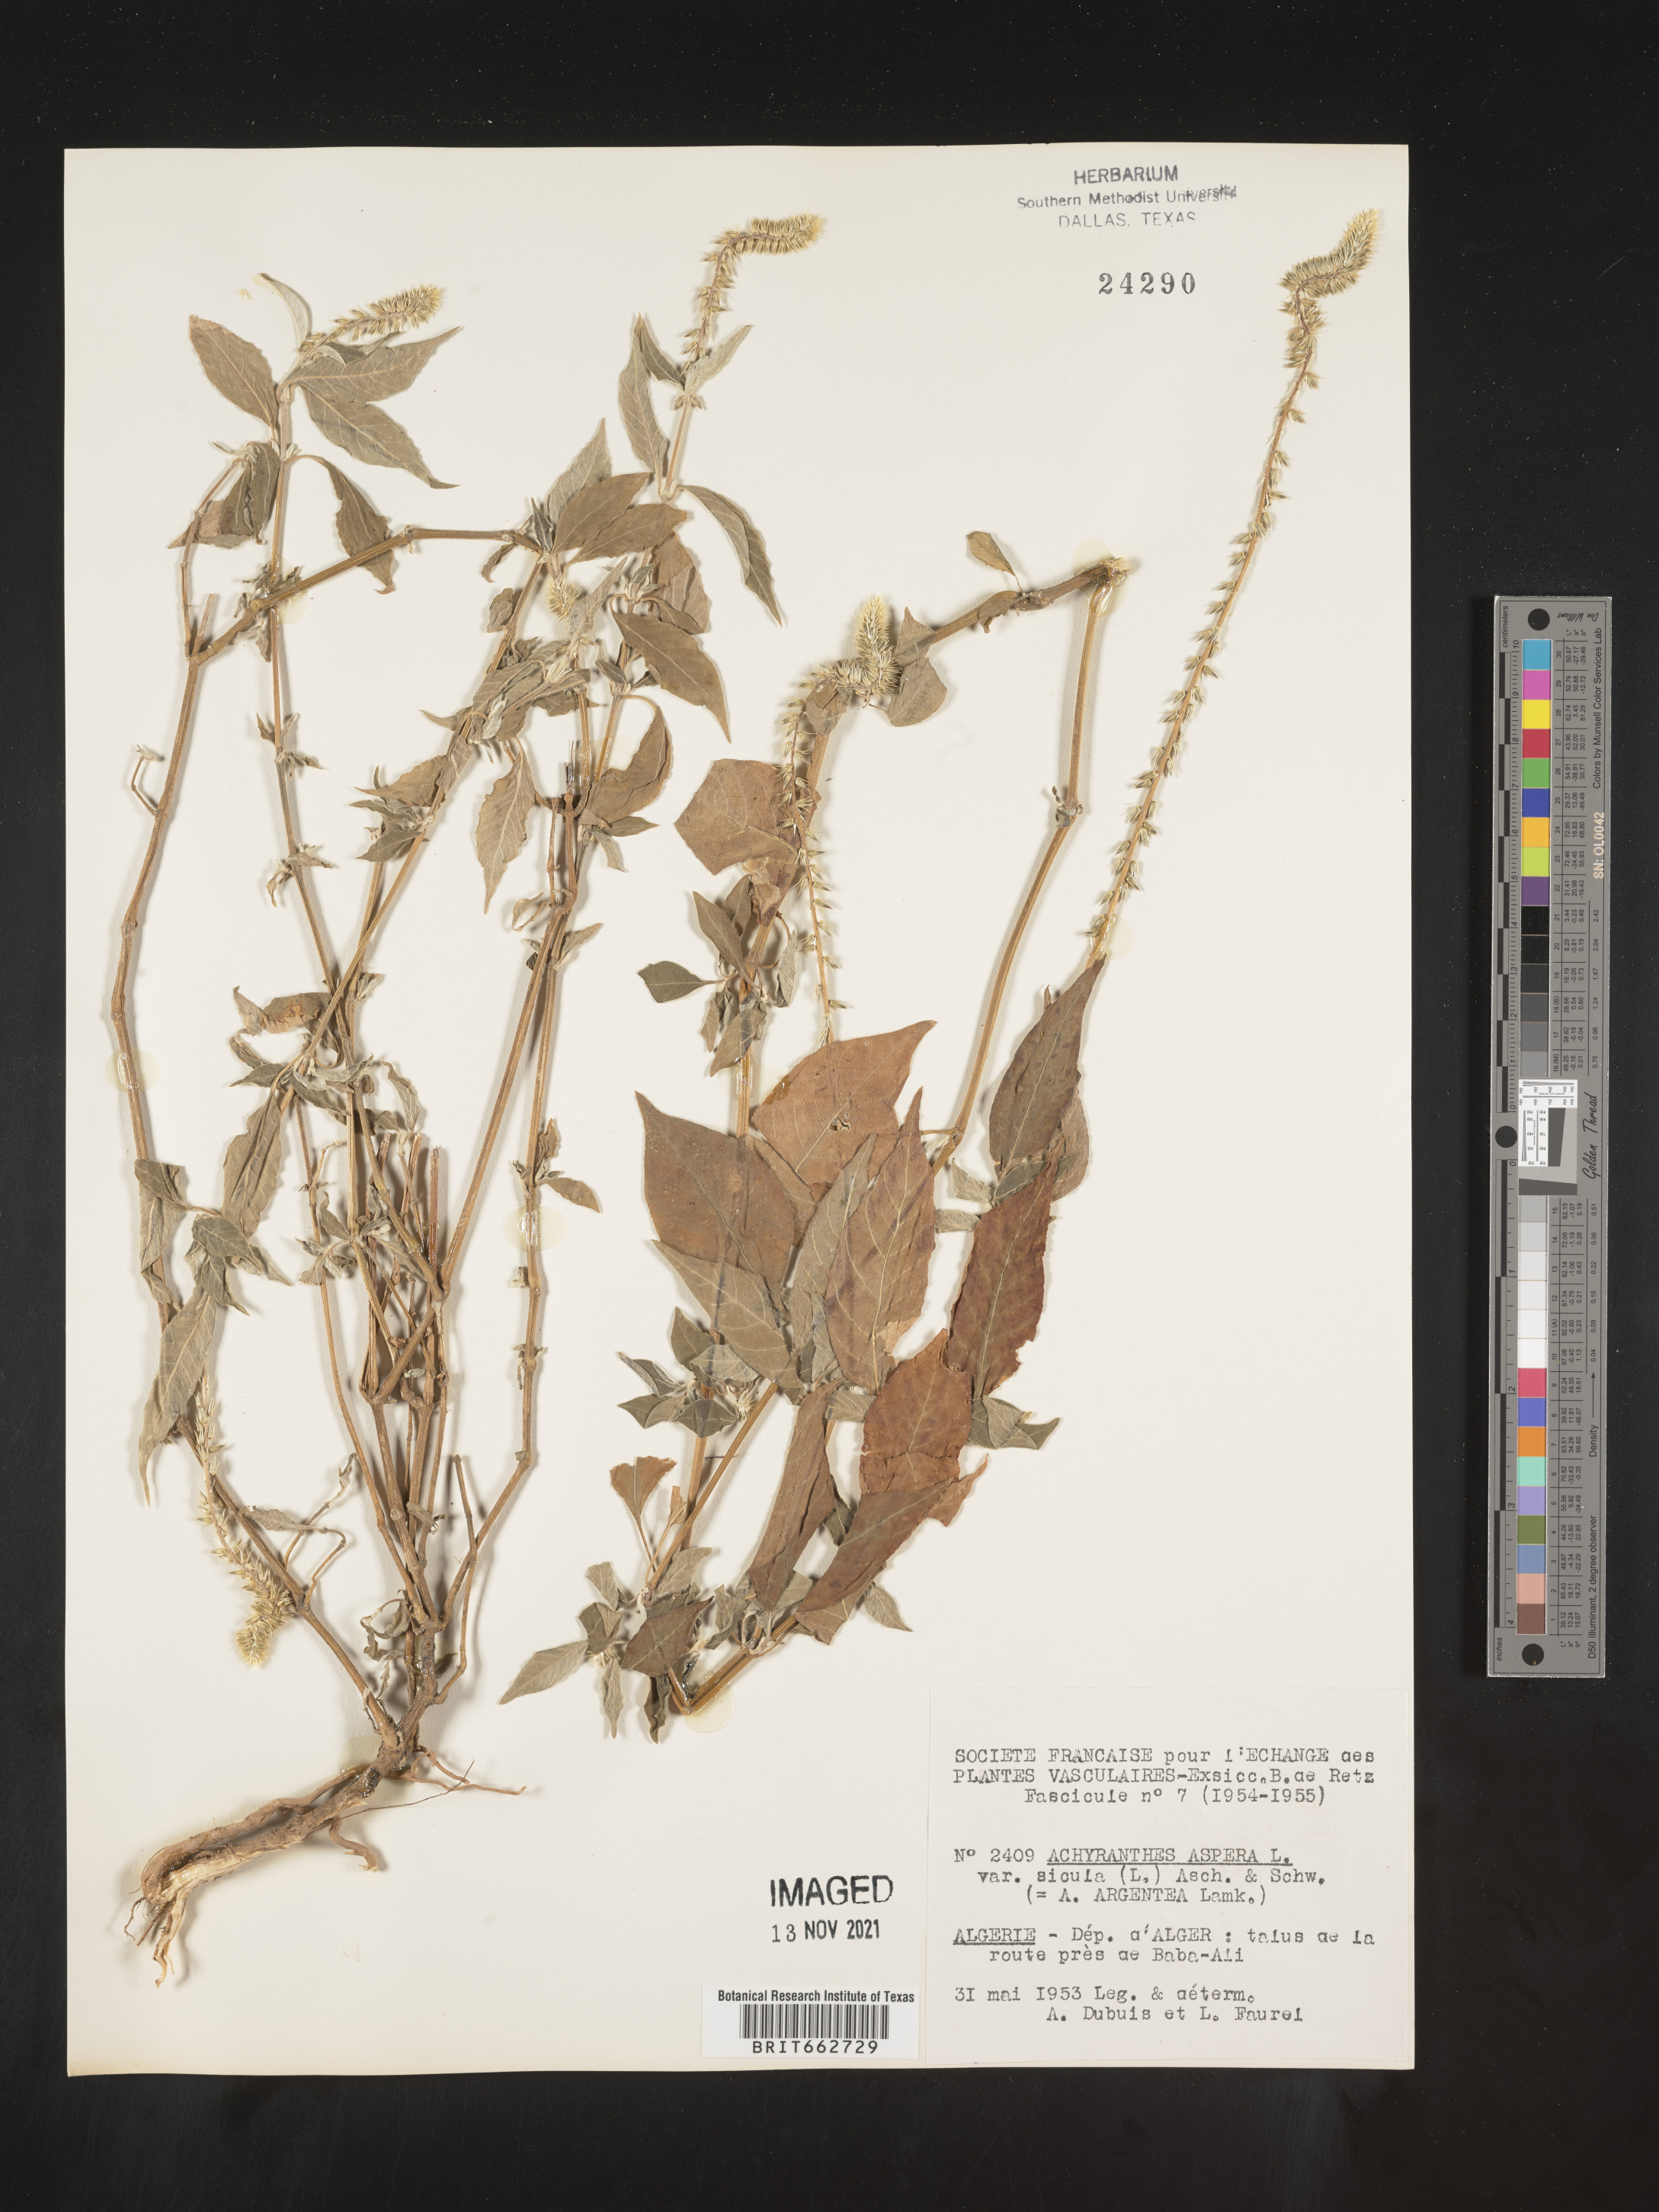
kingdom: Plantae
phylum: Tracheophyta
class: Magnoliopsida
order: Caryophyllales
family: Amaranthaceae
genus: Achyranthes
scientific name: Achyranthes
